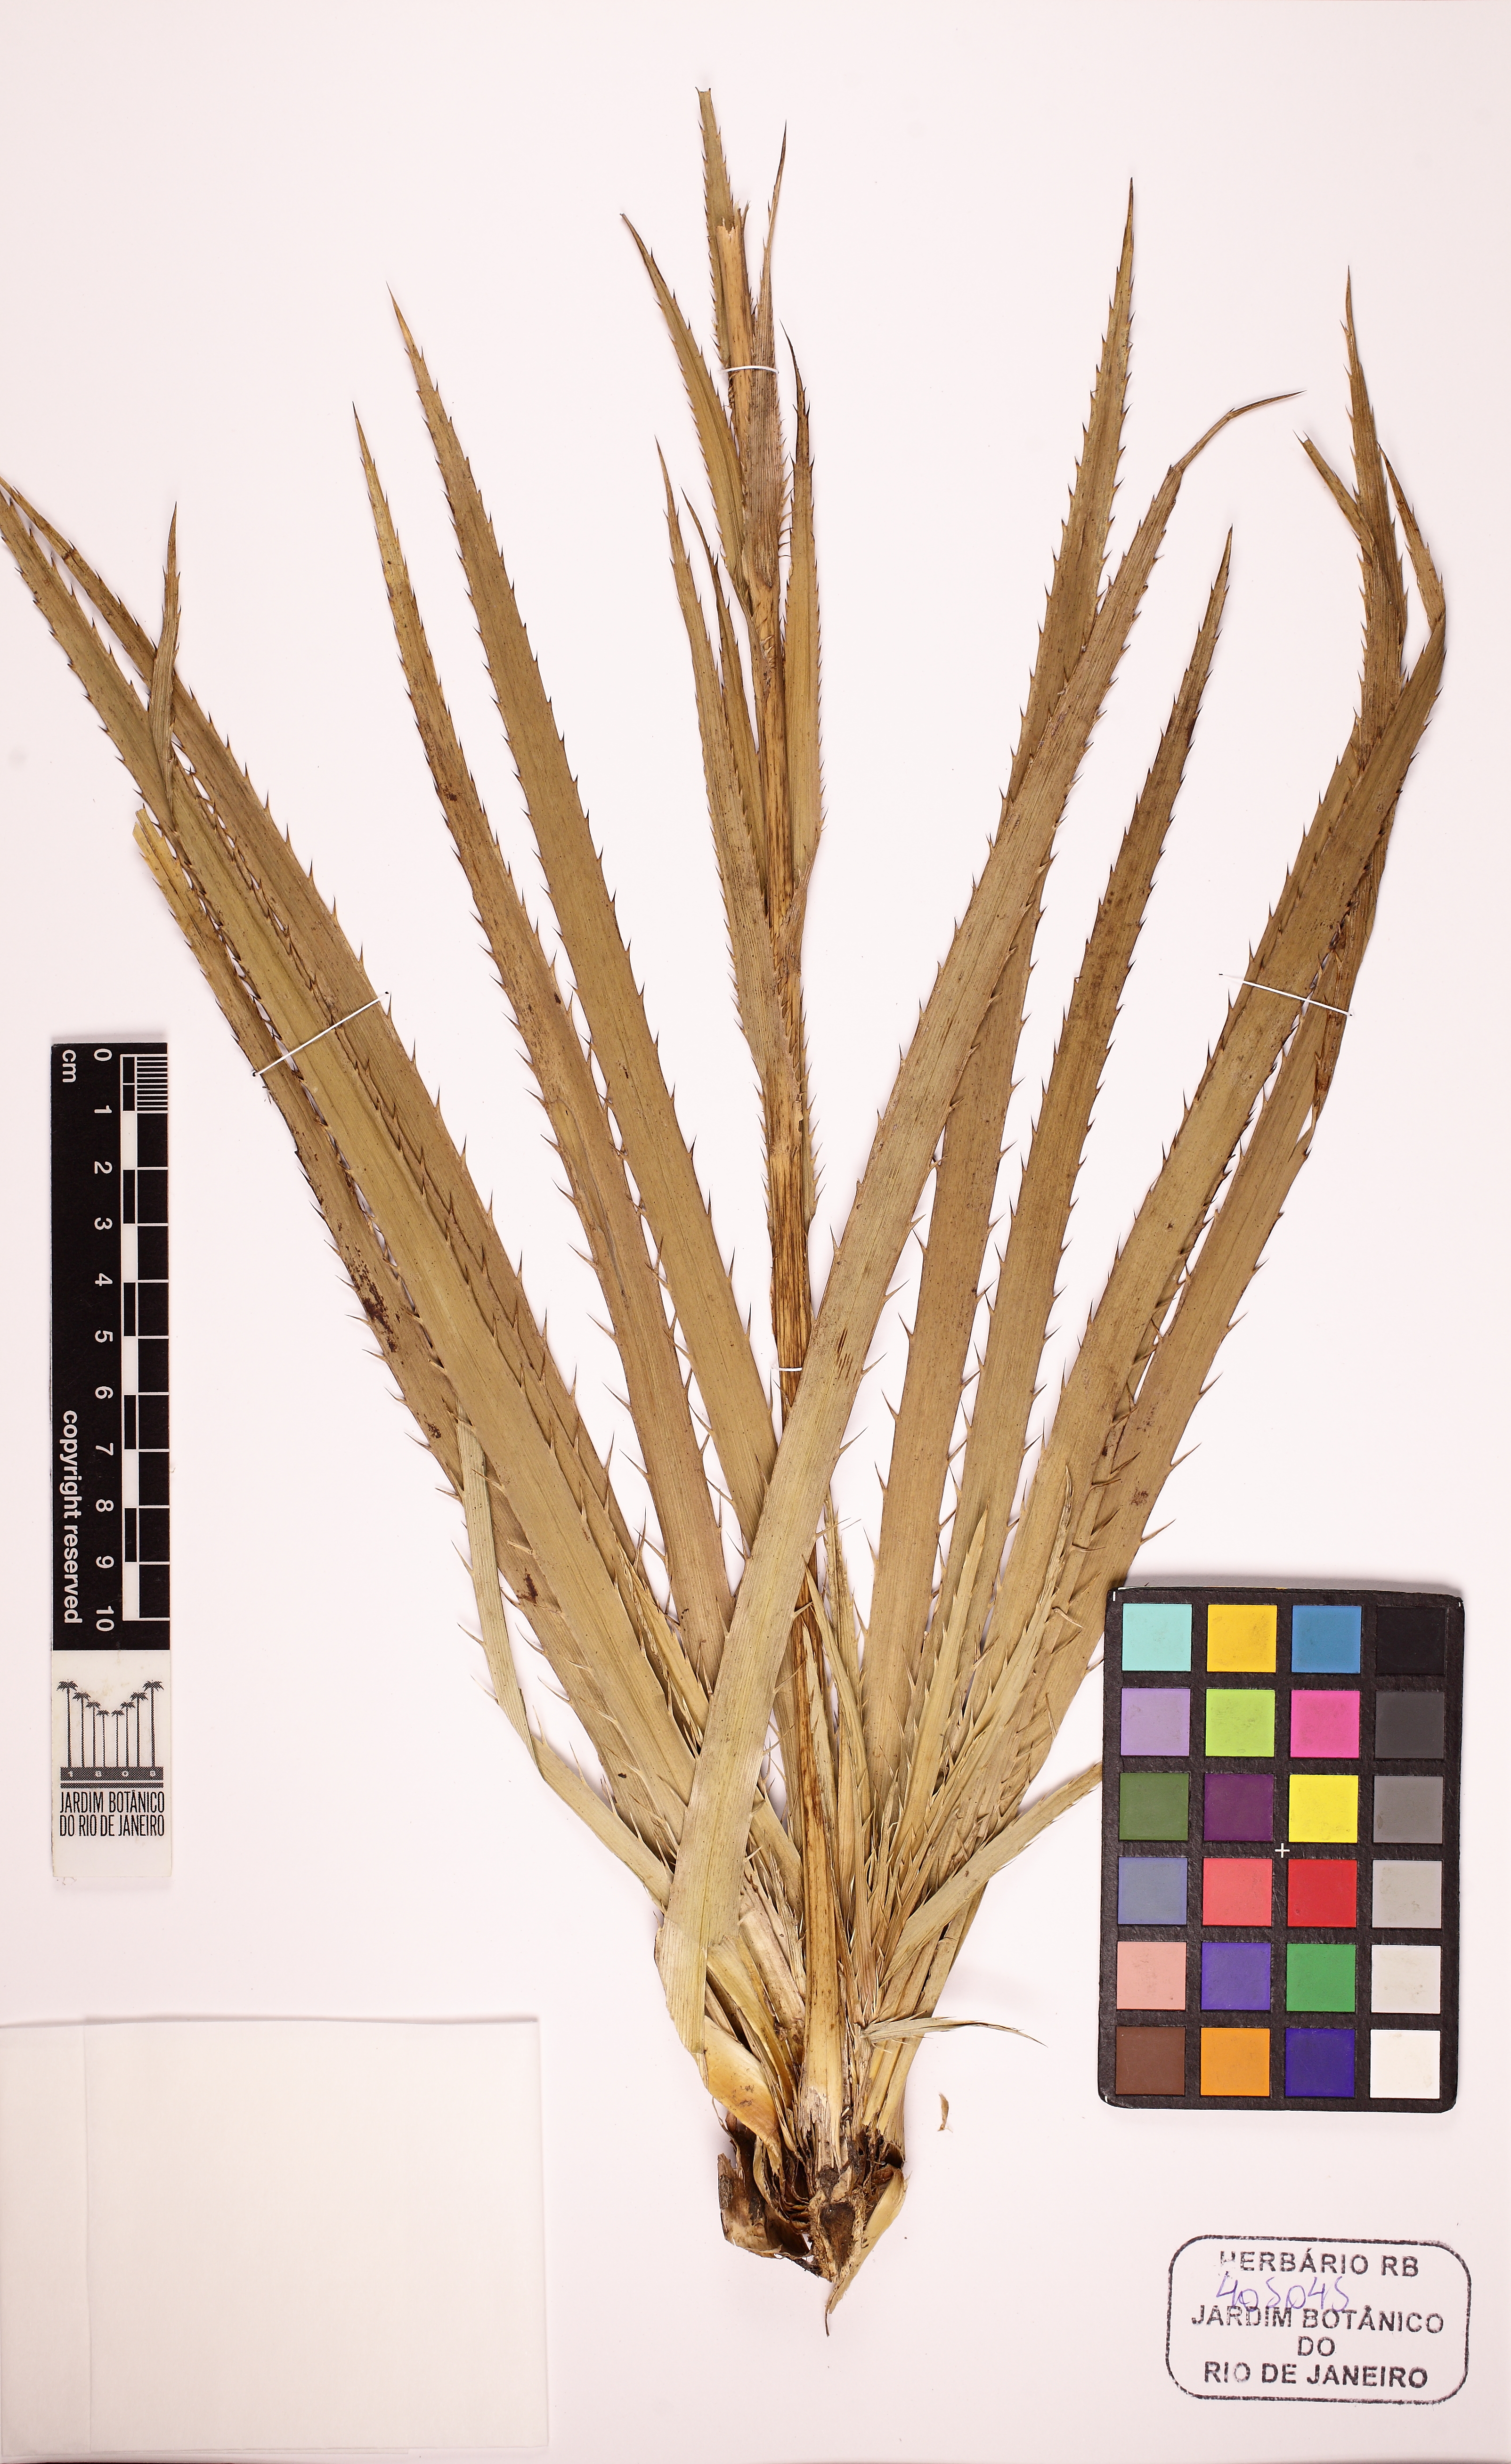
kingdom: Plantae
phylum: Tracheophyta
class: Magnoliopsida
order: Apiales
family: Apiaceae
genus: Eryngium
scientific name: Eryngium eurycephalum
